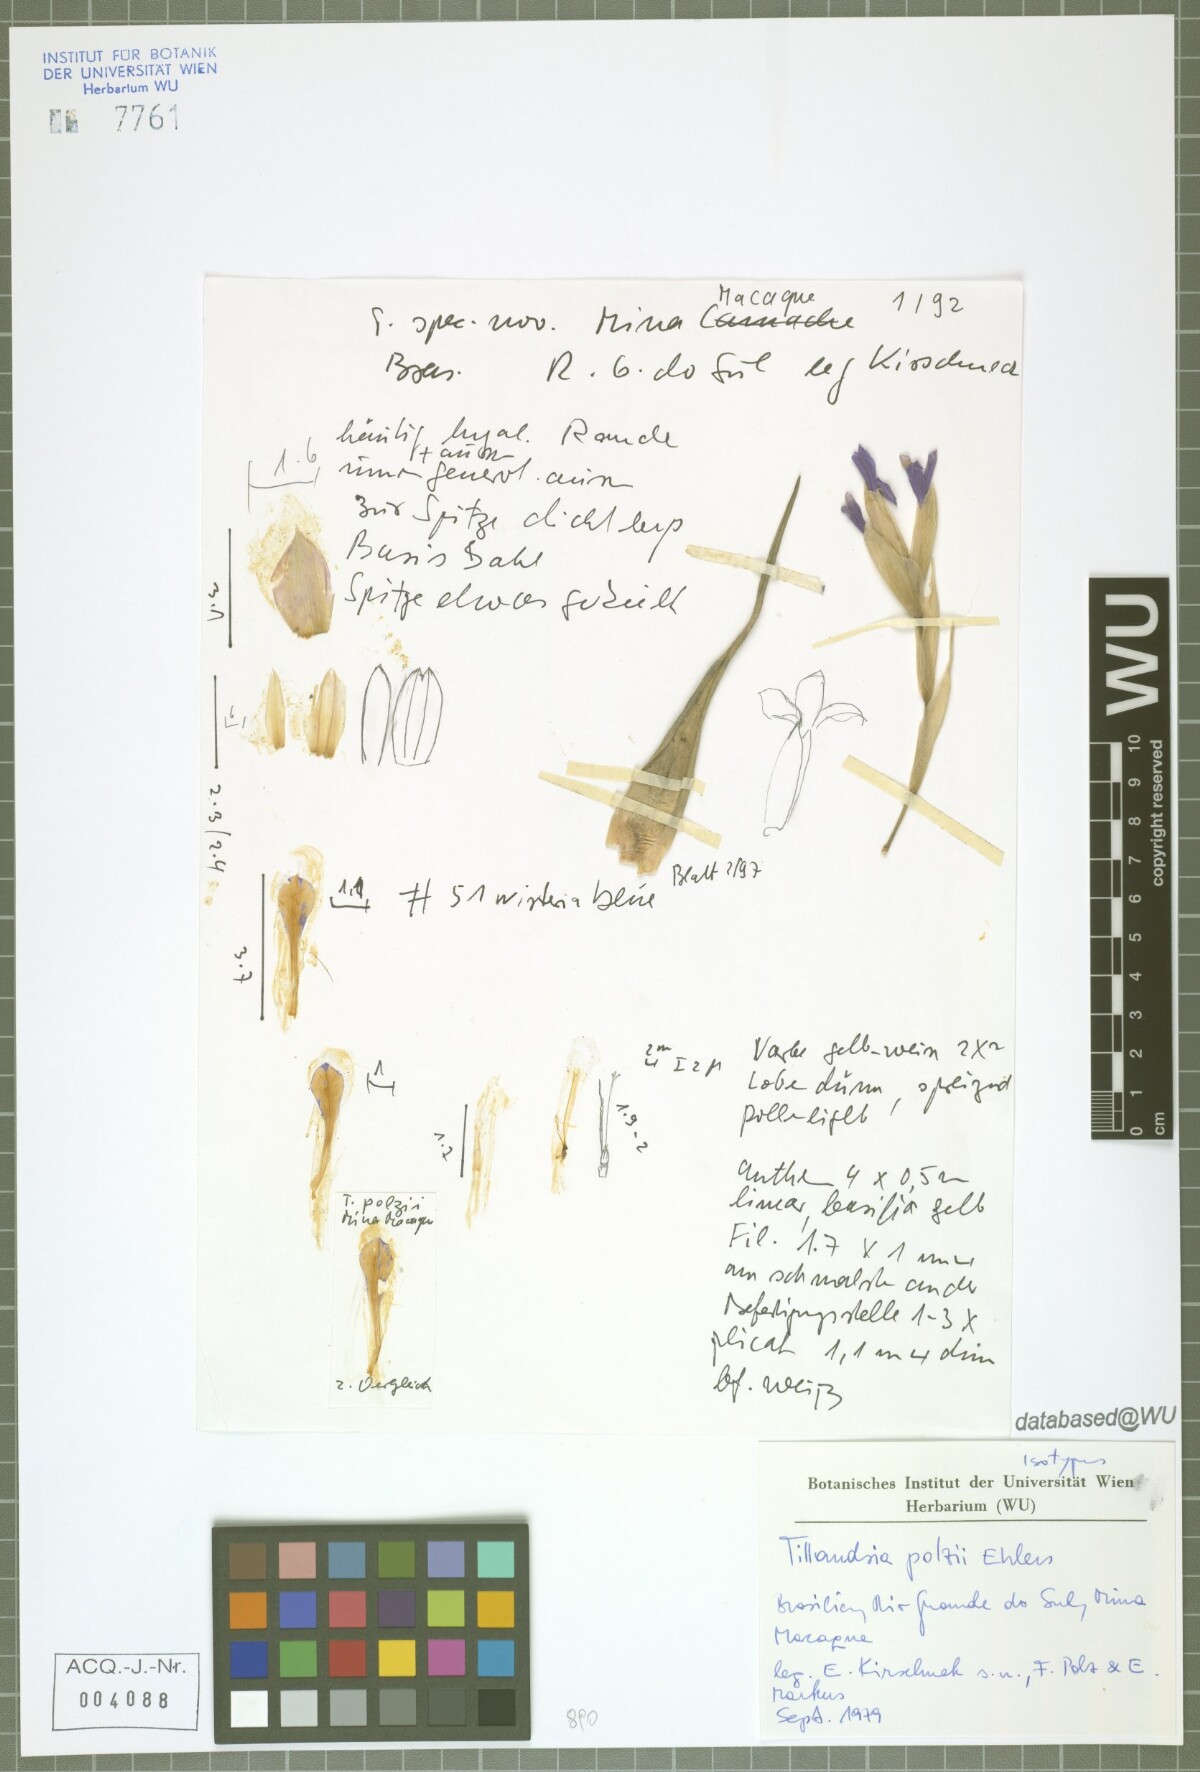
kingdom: Plantae
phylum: Tracheophyta
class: Liliopsida
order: Poales
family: Bromeliaceae
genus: Tillandsia
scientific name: Tillandsia polzii
